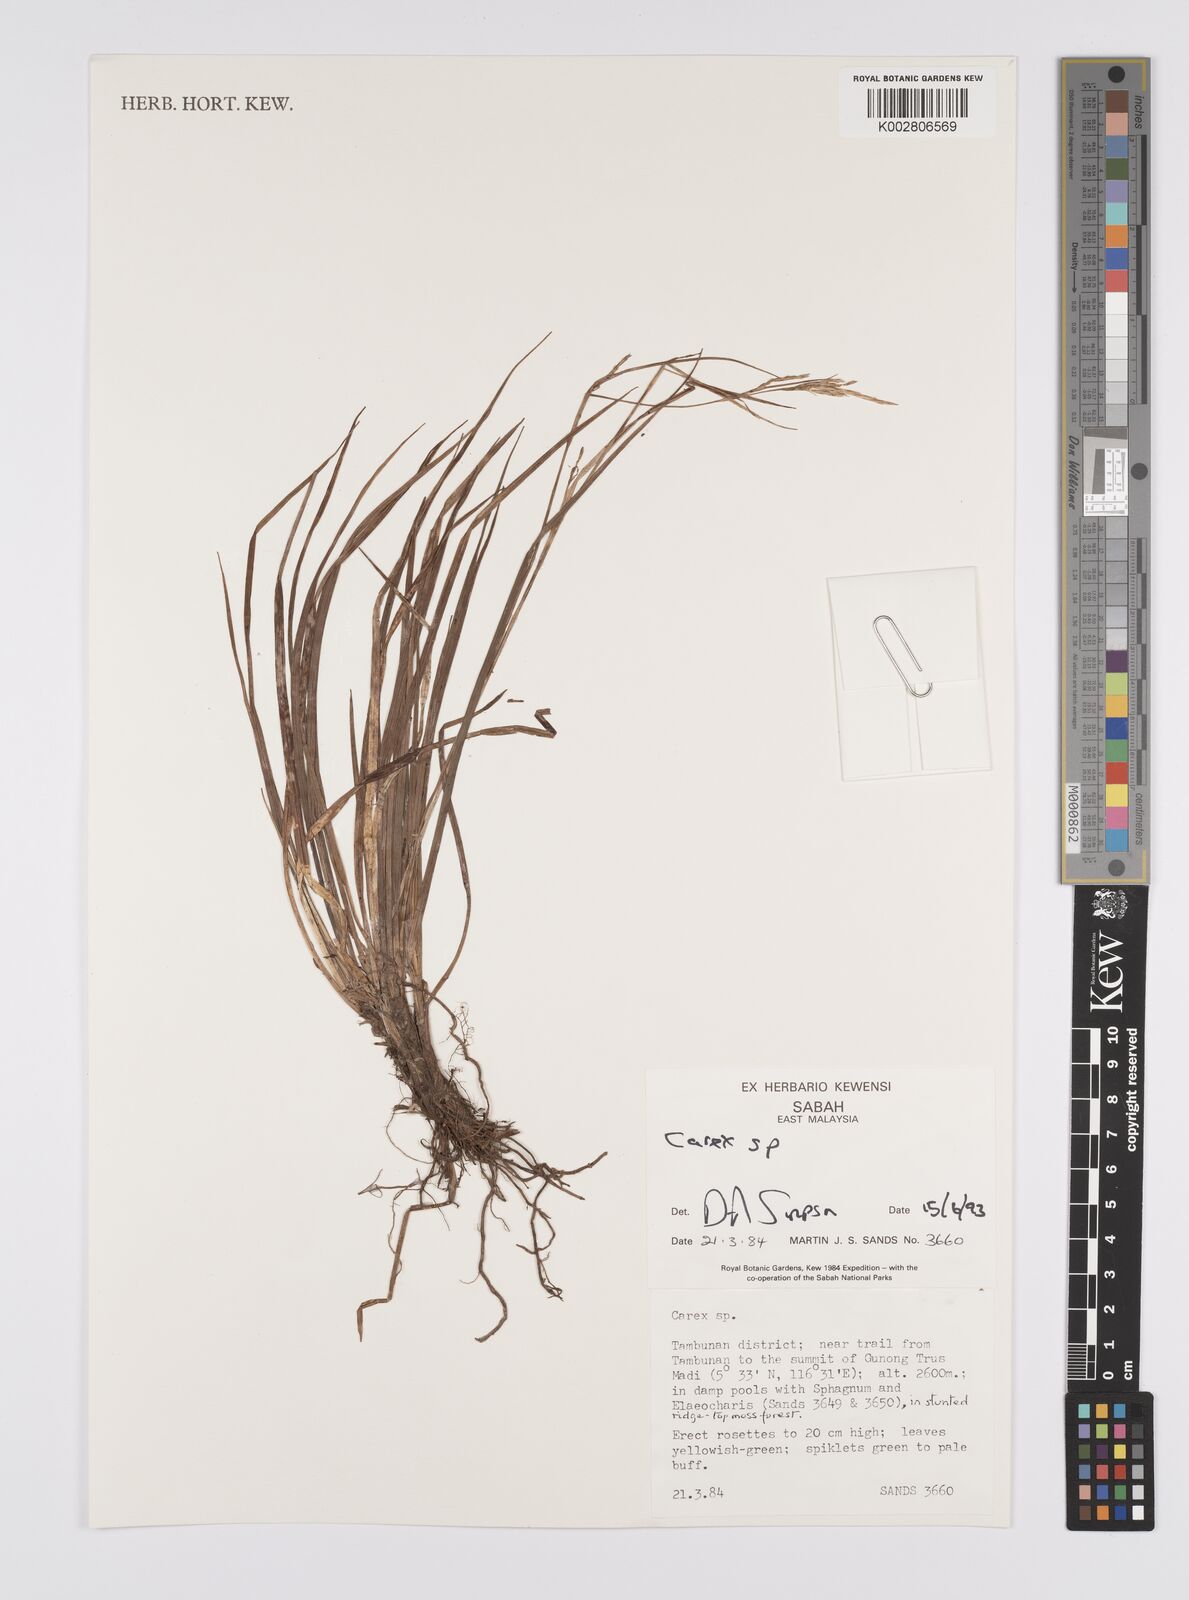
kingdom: Plantae
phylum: Tracheophyta
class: Liliopsida
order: Poales
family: Cyperaceae
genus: Carex
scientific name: Carex
